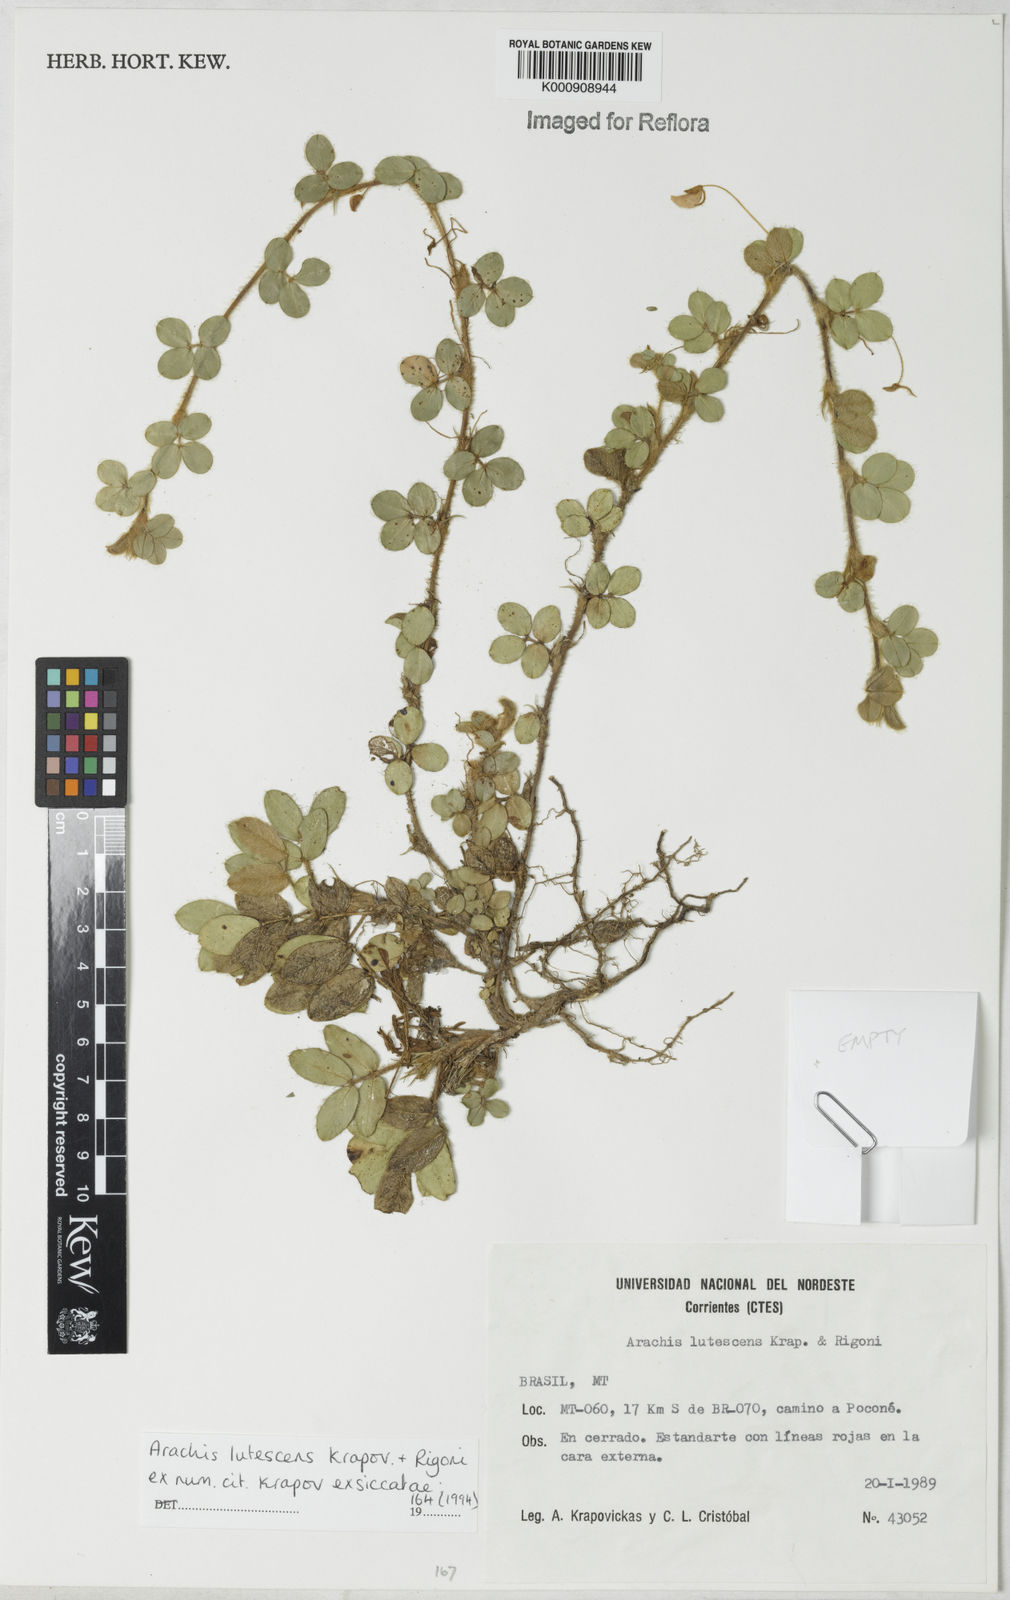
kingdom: Plantae
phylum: Tracheophyta
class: Magnoliopsida
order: Fabales
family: Fabaceae
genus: Arachis
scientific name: Arachis lutescens
